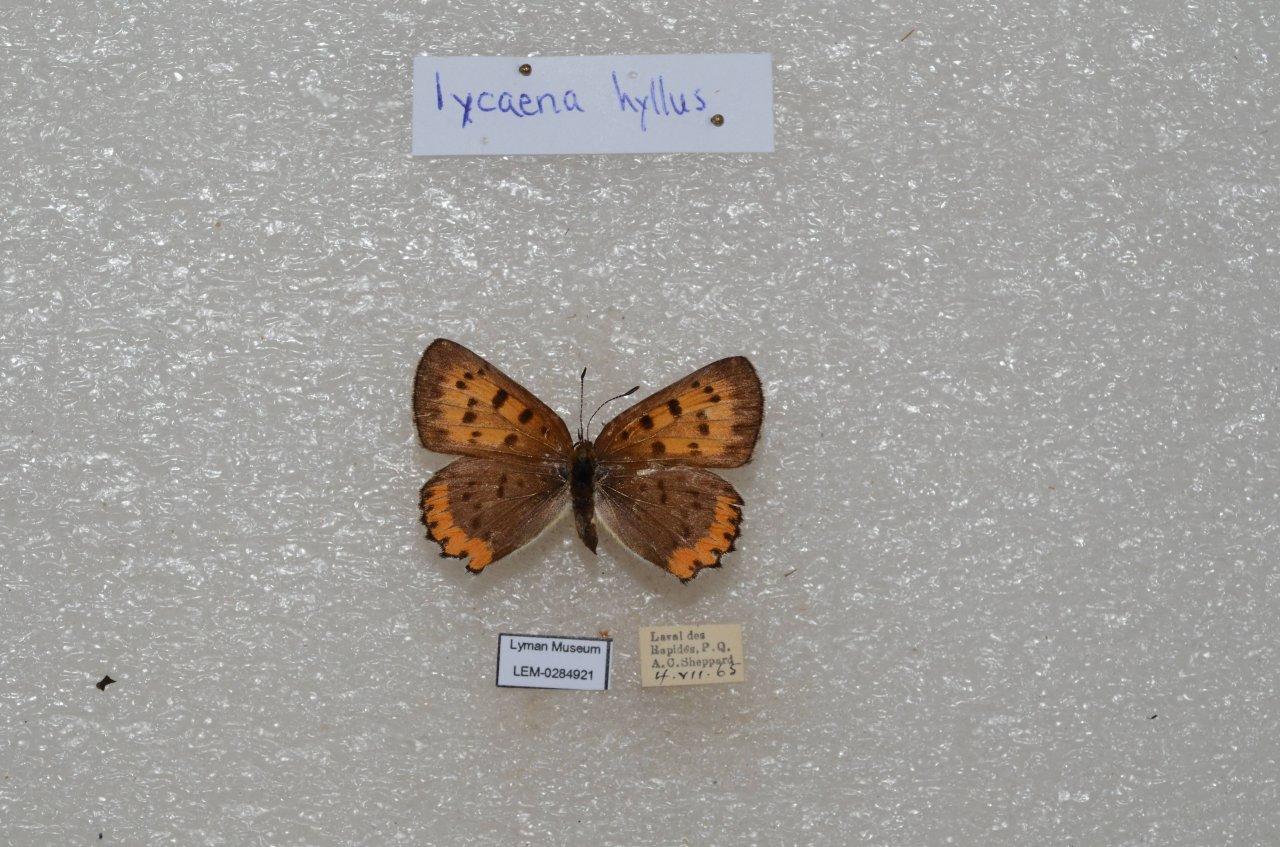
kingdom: Animalia
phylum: Arthropoda
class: Insecta
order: Lepidoptera
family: Sesiidae
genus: Sesia
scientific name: Sesia Lycaena hyllus
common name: Bronze Copper
